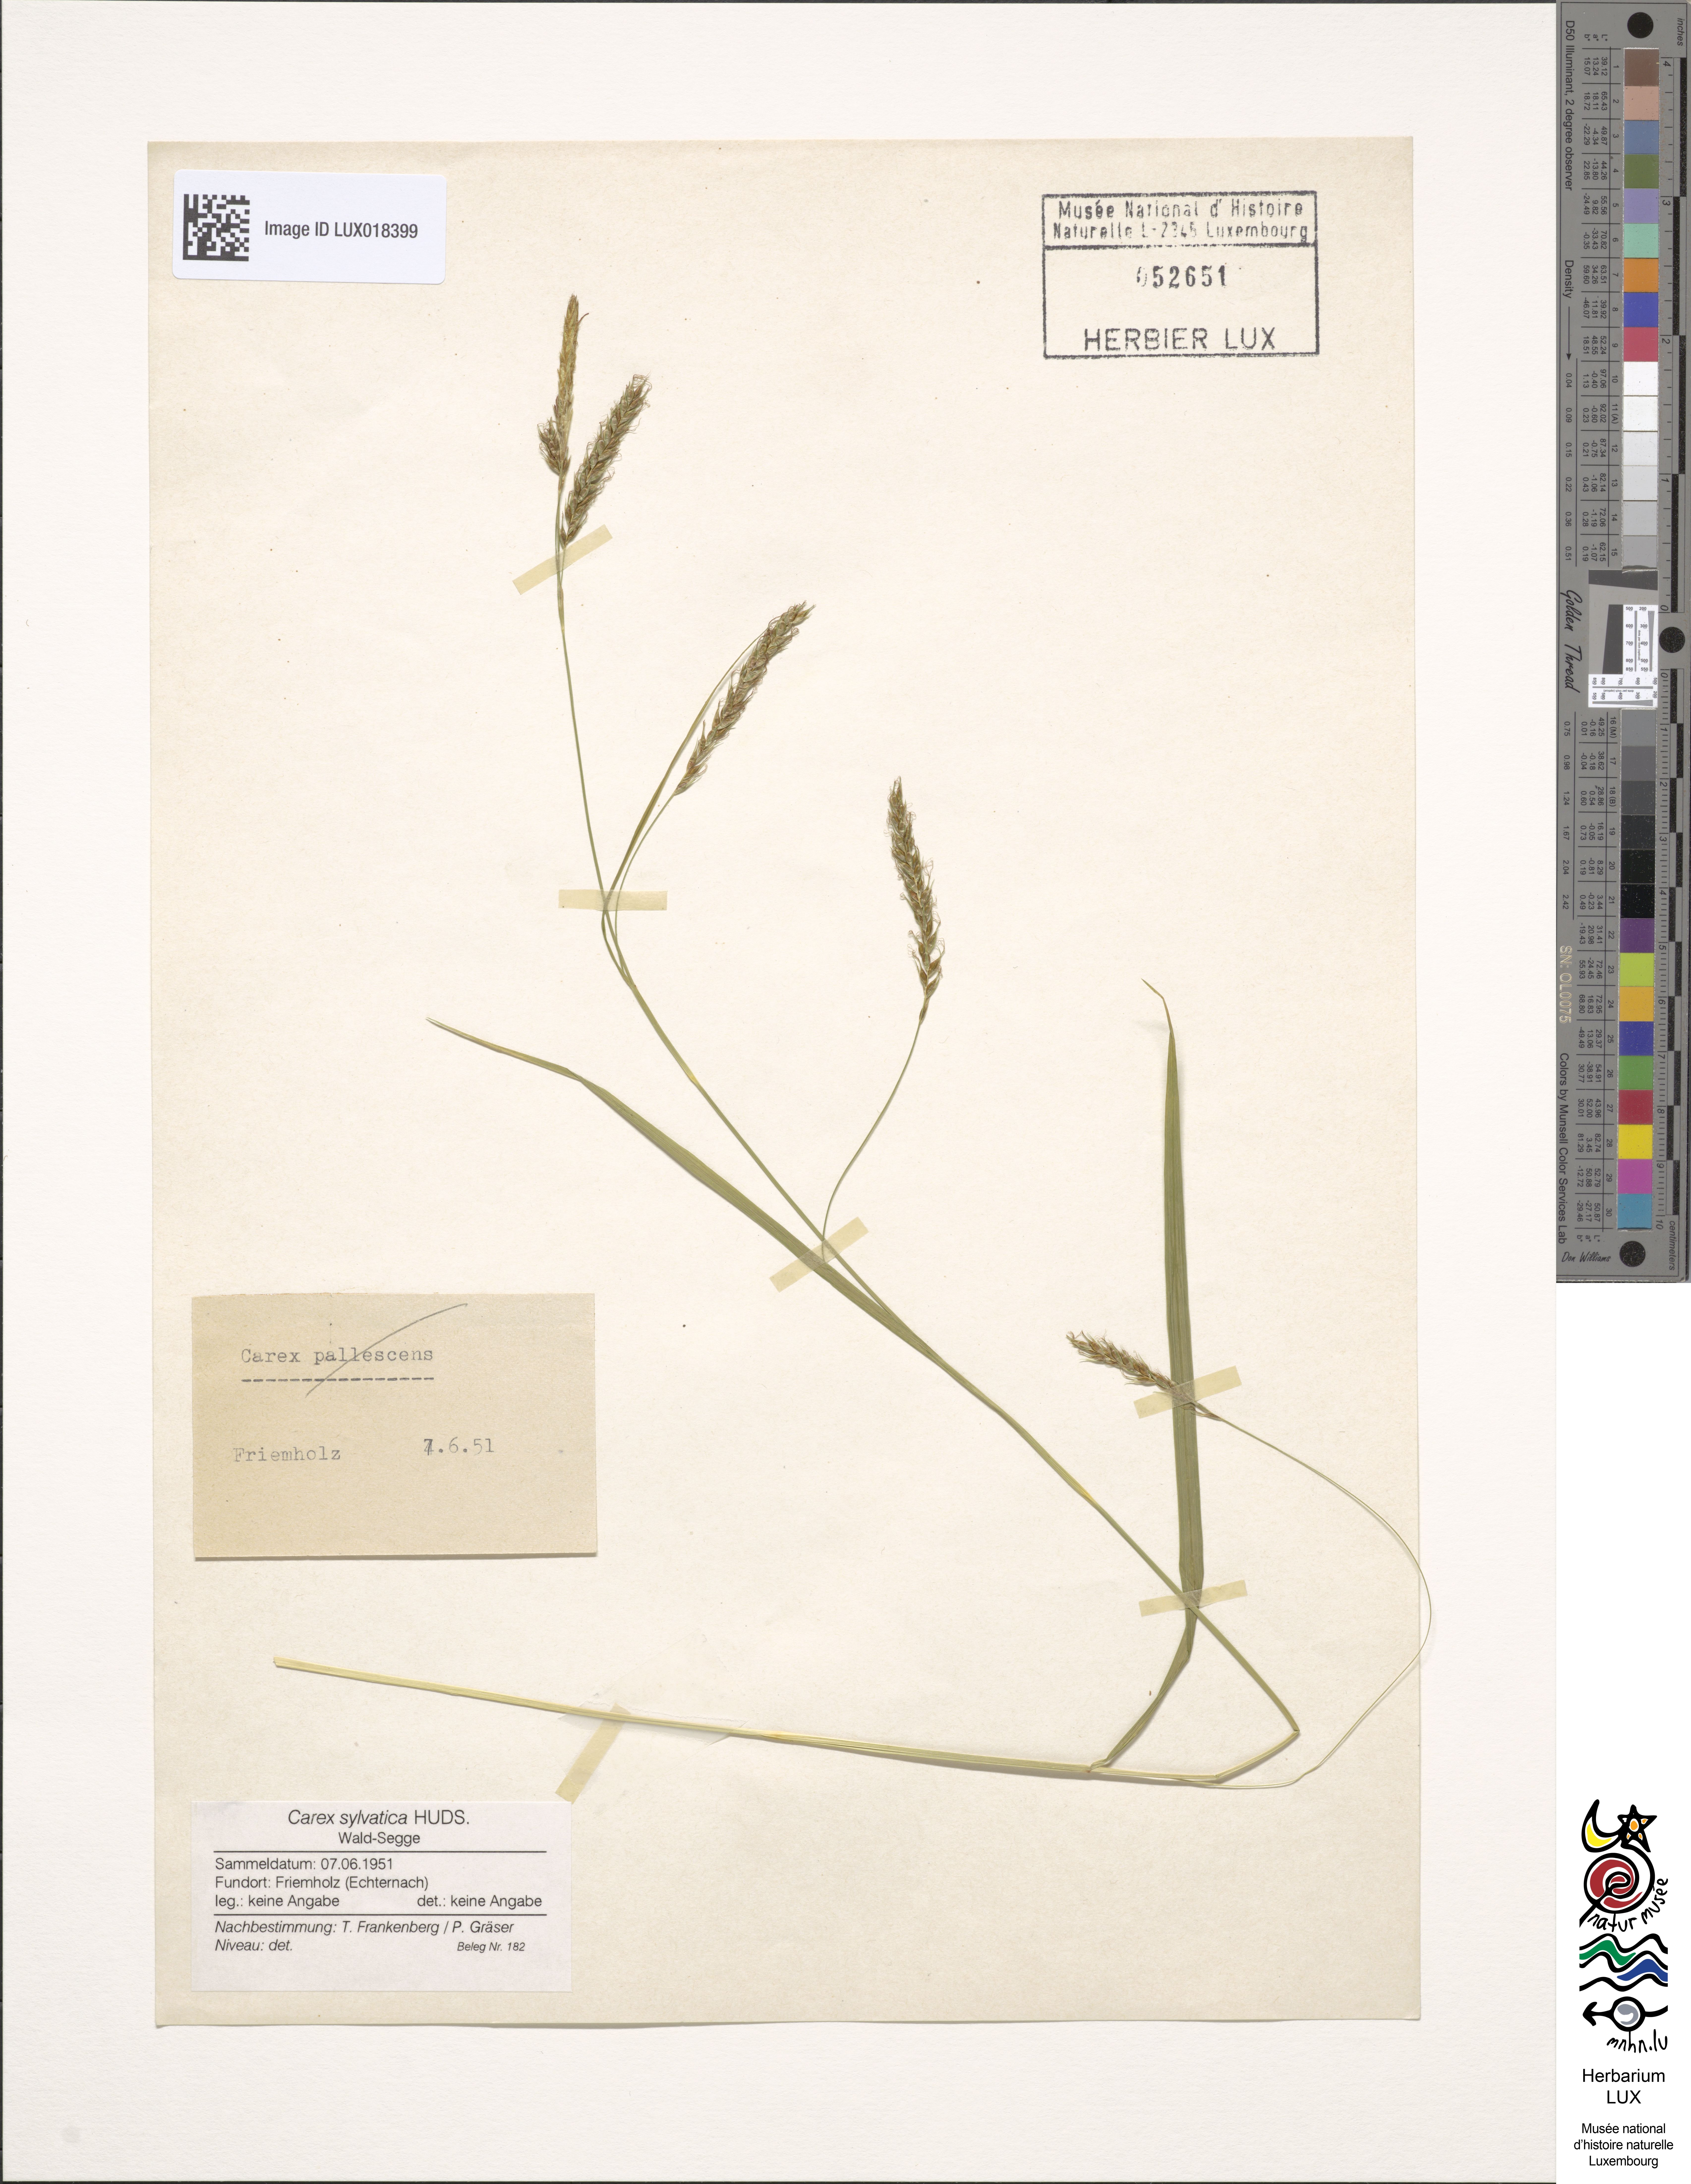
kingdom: Plantae
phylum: Tracheophyta
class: Liliopsida
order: Poales
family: Cyperaceae
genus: Carex
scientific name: Carex sylvatica
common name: Wood-sedge
